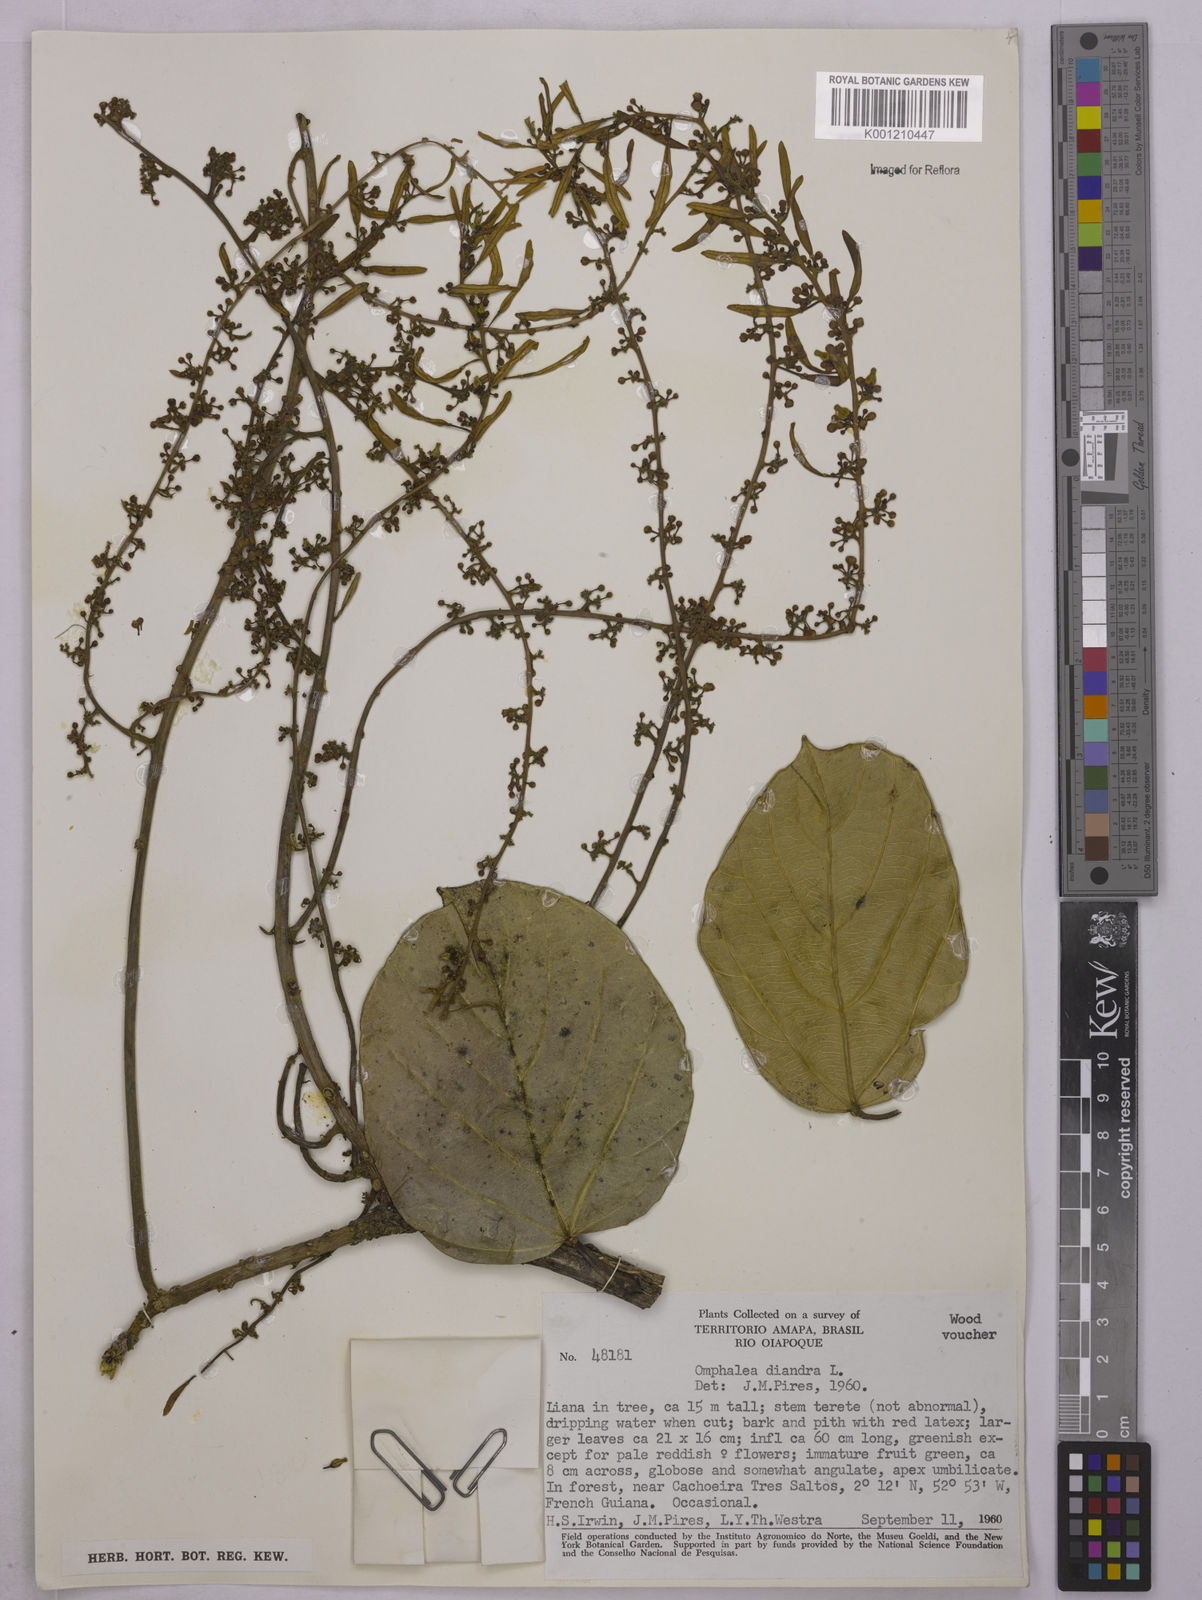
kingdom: Plantae
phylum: Tracheophyta
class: Magnoliopsida
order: Malpighiales
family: Euphorbiaceae
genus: Omphalea
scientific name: Omphalea diandra
